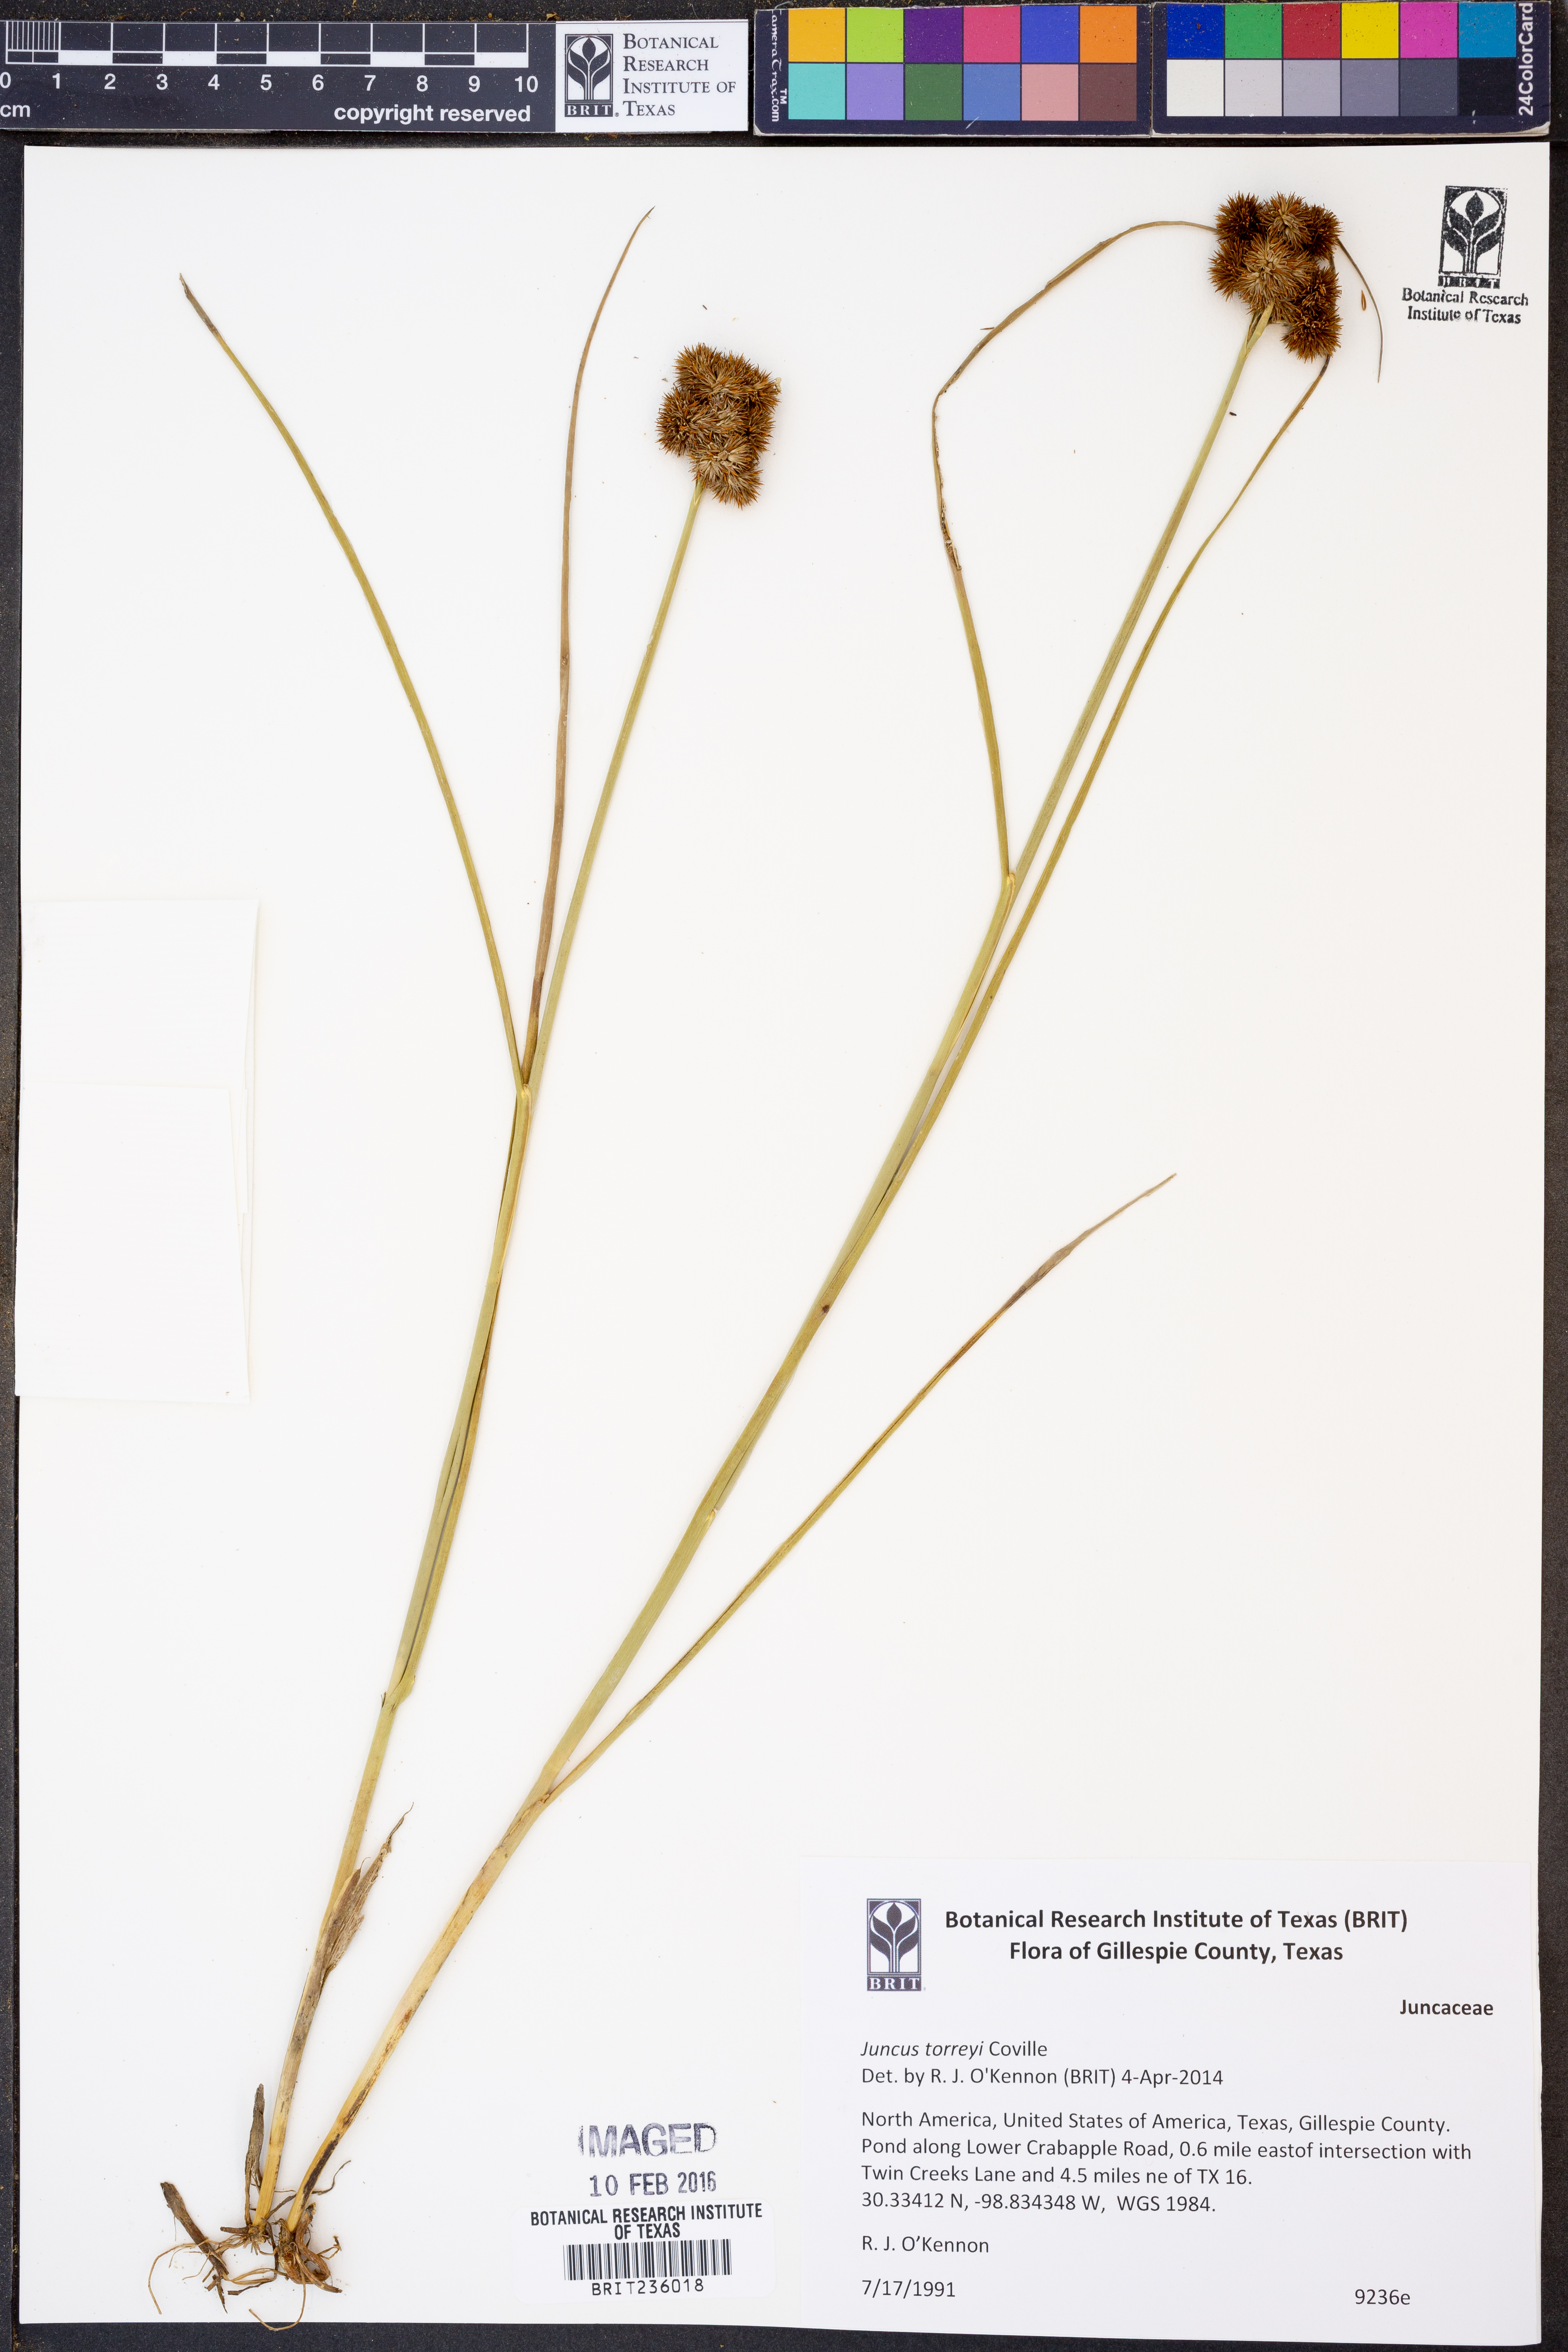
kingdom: Plantae
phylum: Tracheophyta
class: Liliopsida
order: Poales
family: Juncaceae
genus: Juncus
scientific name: Juncus torreyi
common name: Torrey's rush
